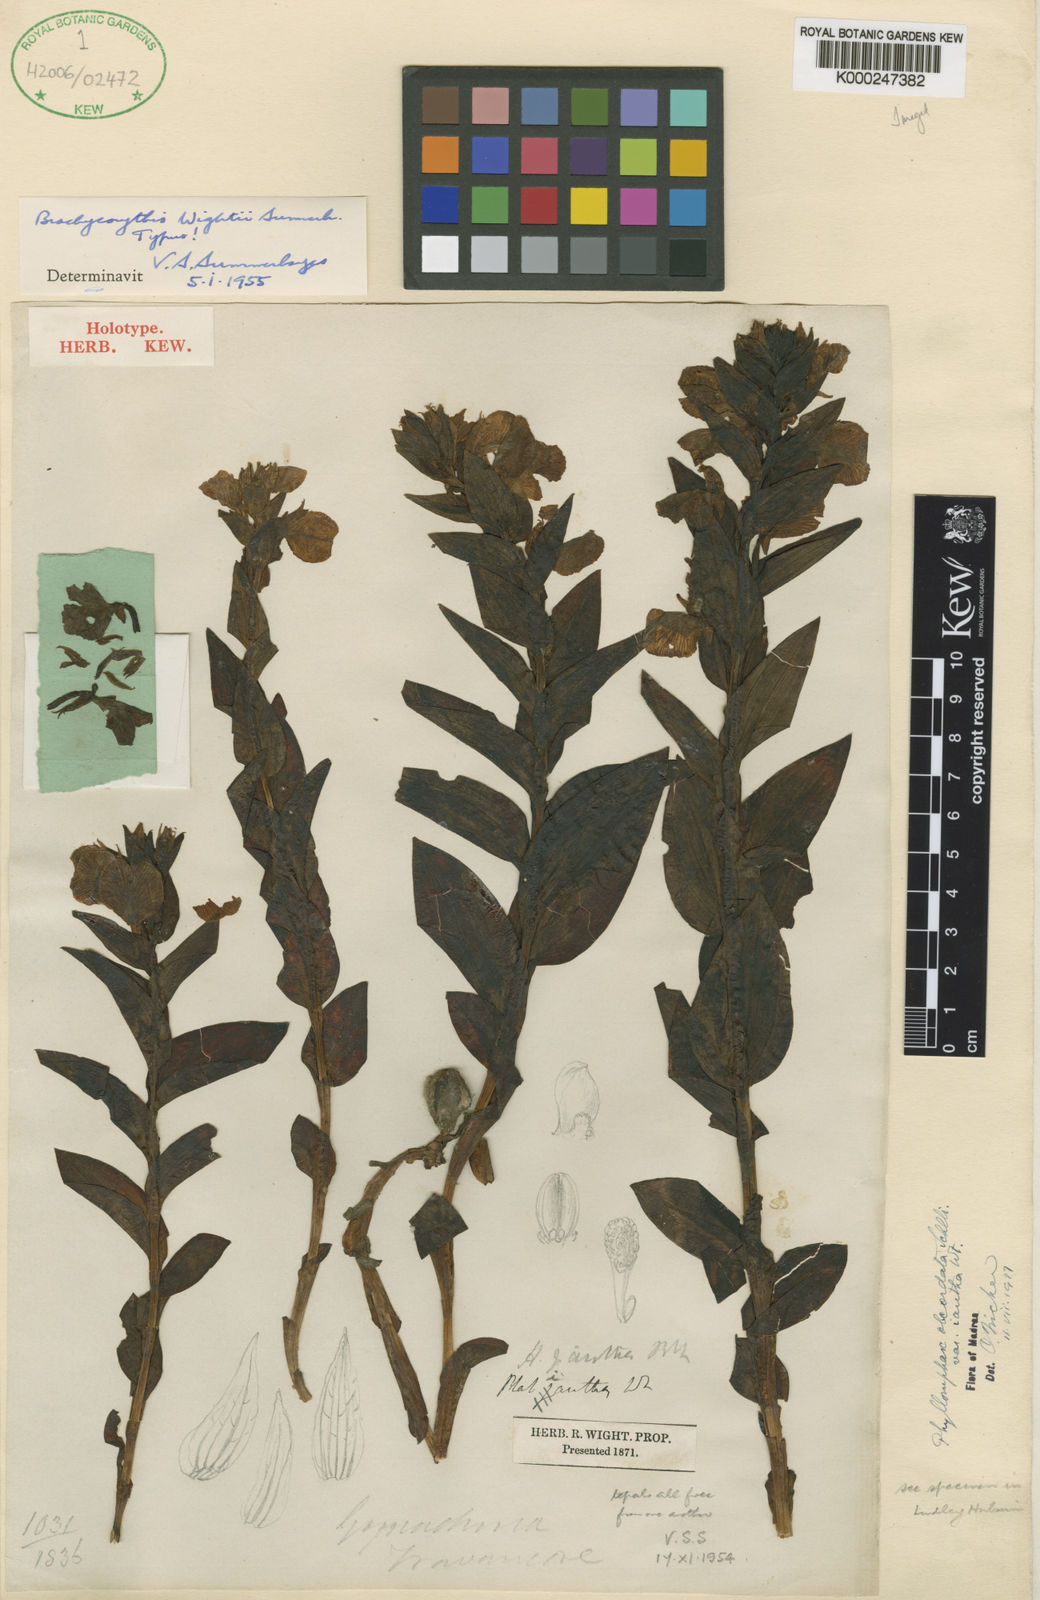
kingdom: Plantae
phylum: Tracheophyta
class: Liliopsida
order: Asparagales
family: Orchidaceae
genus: Brachycorythis
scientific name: Brachycorythis wightii
